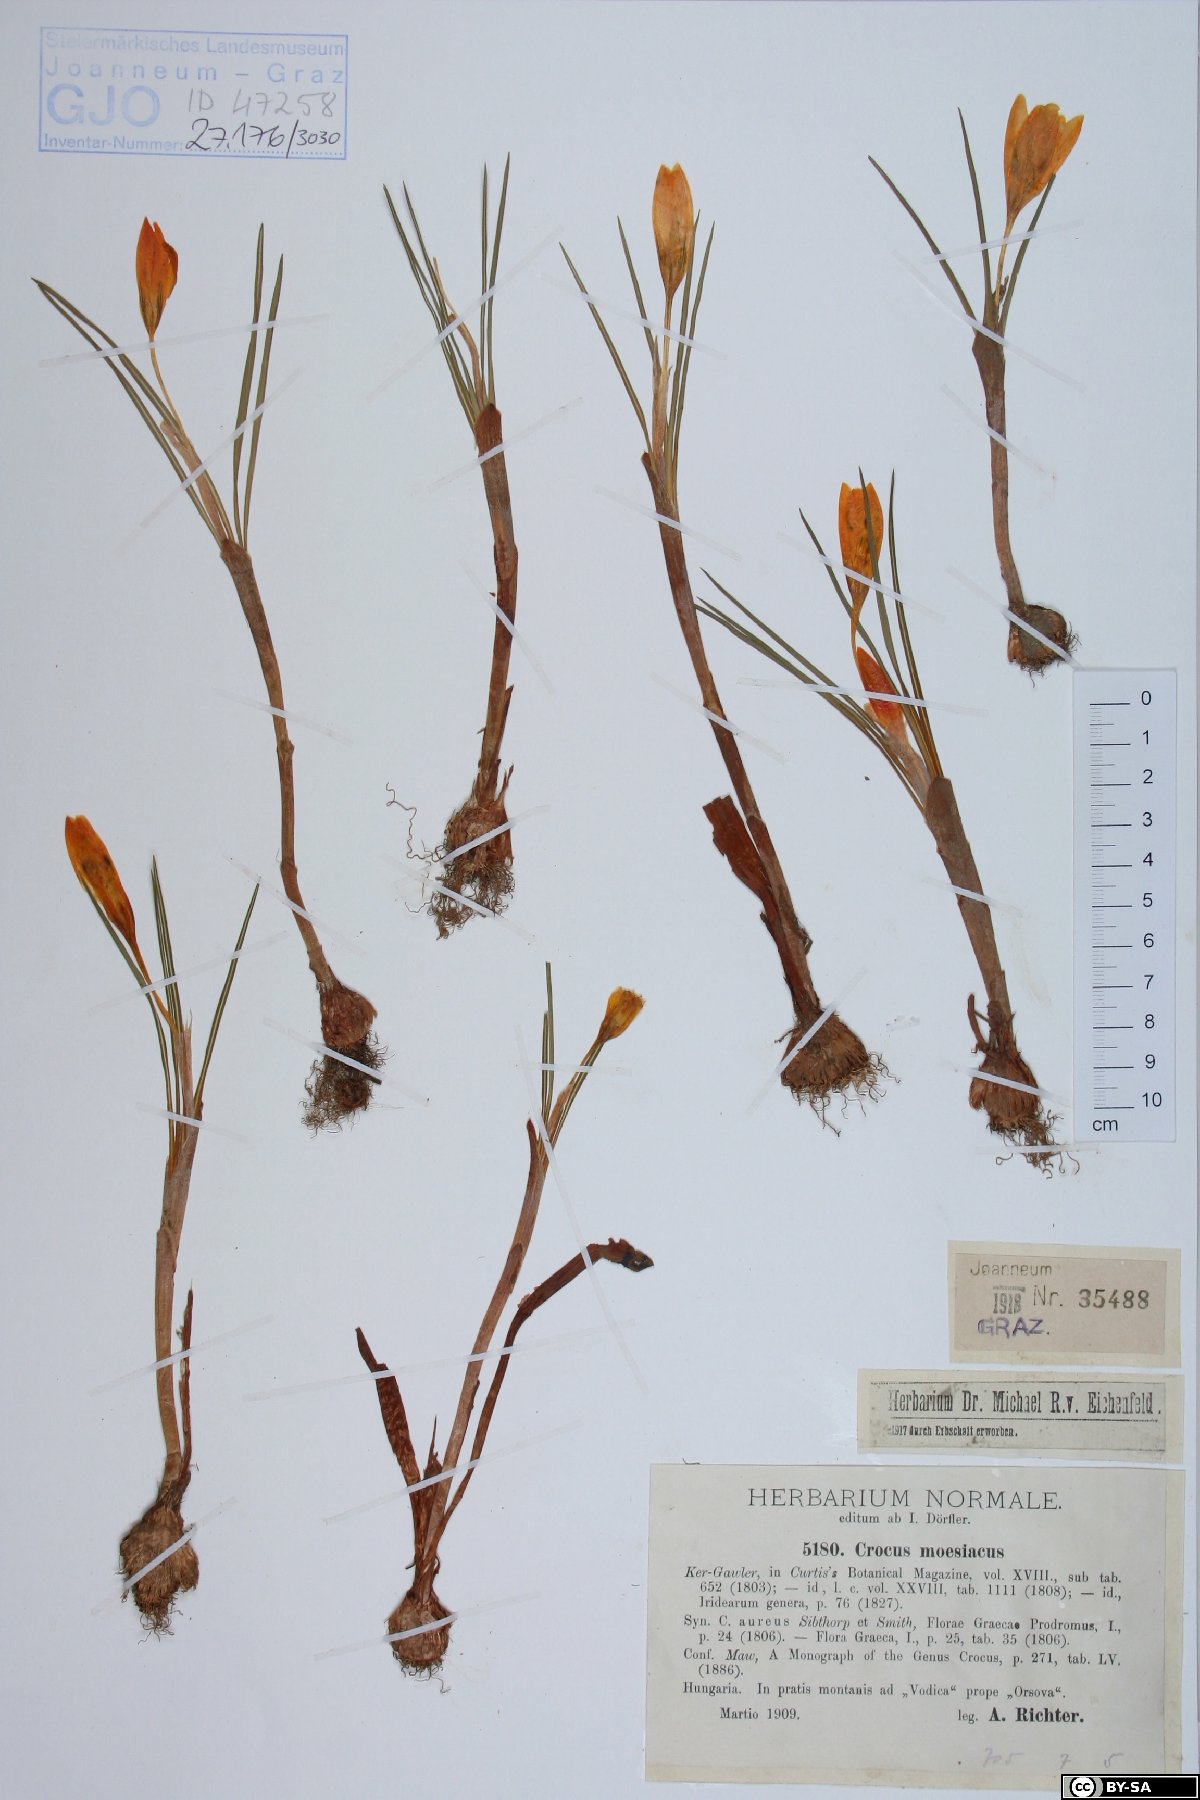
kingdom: Plantae
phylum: Tracheophyta
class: Liliopsida
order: Asparagales
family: Iridaceae
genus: Crocus
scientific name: Crocus flavus
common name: Yellow crocus
